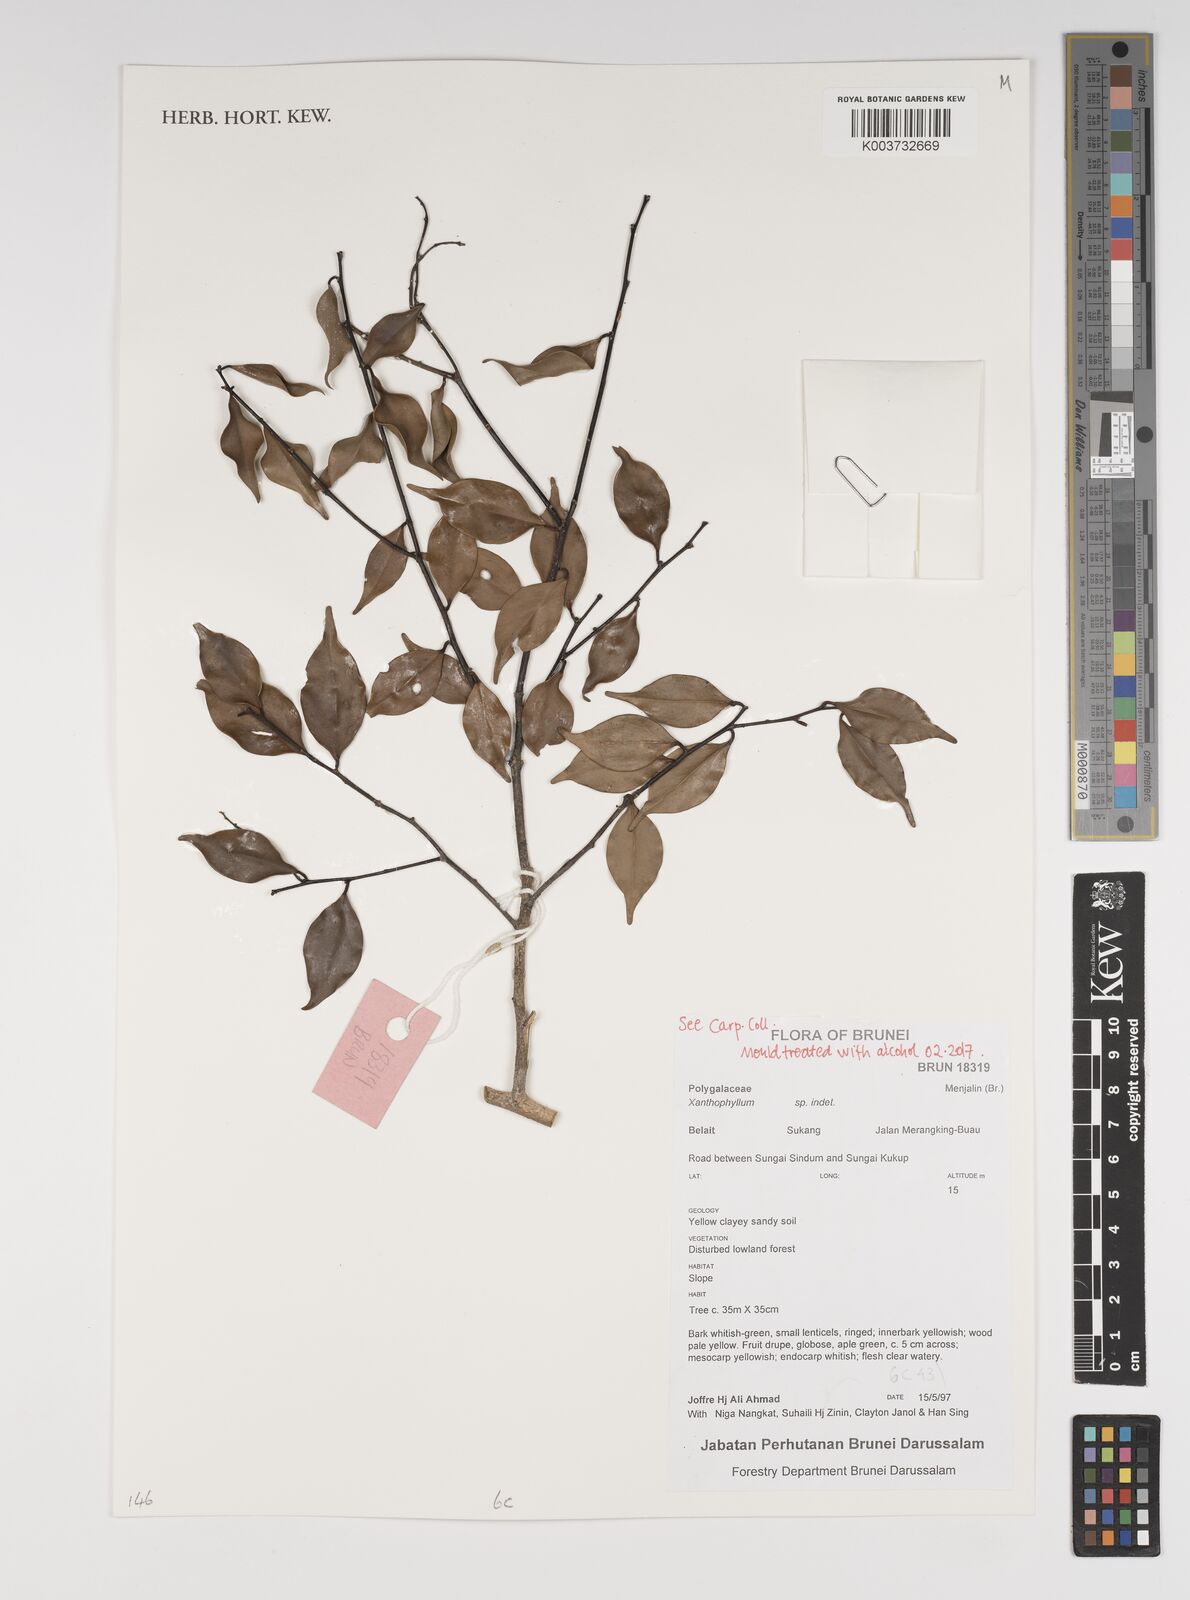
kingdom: Plantae
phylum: Tracheophyta
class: Magnoliopsida
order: Fabales
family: Polygalaceae
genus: Xanthophyllum
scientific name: Xanthophyllum
